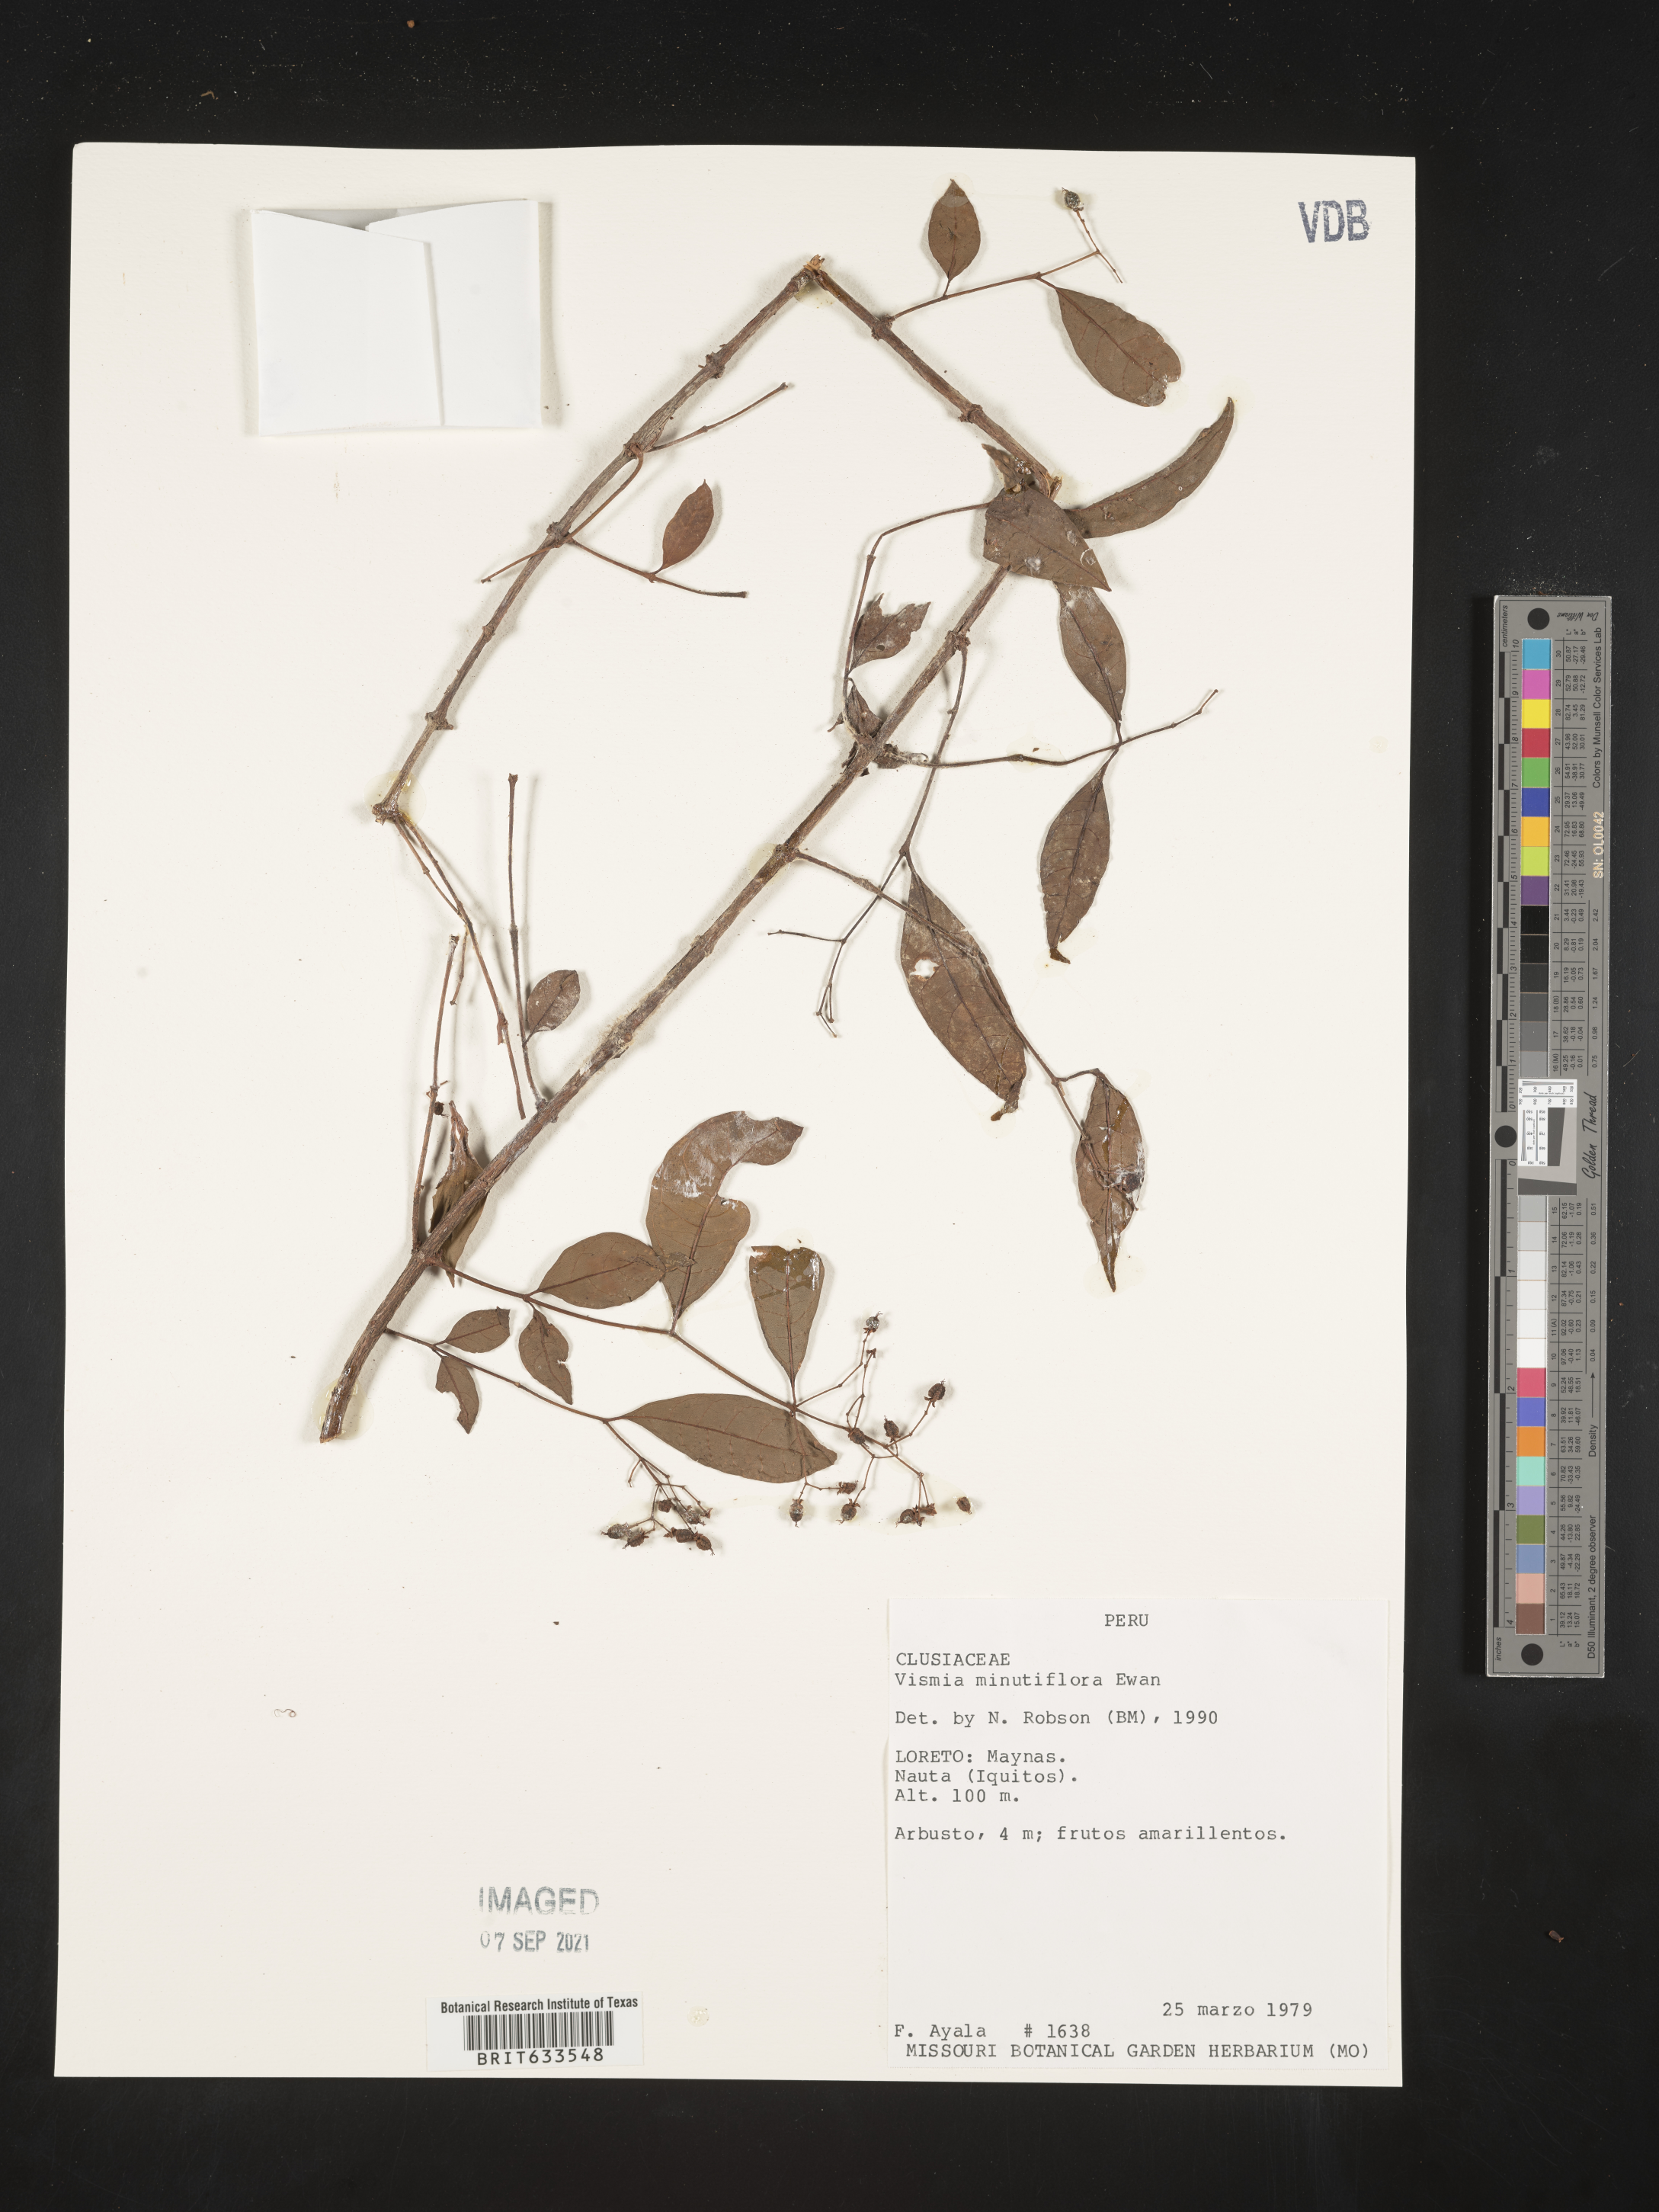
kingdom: Plantae
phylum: Tracheophyta
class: Magnoliopsida
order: Malpighiales
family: Hypericaceae
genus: Vismia
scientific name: Vismia
